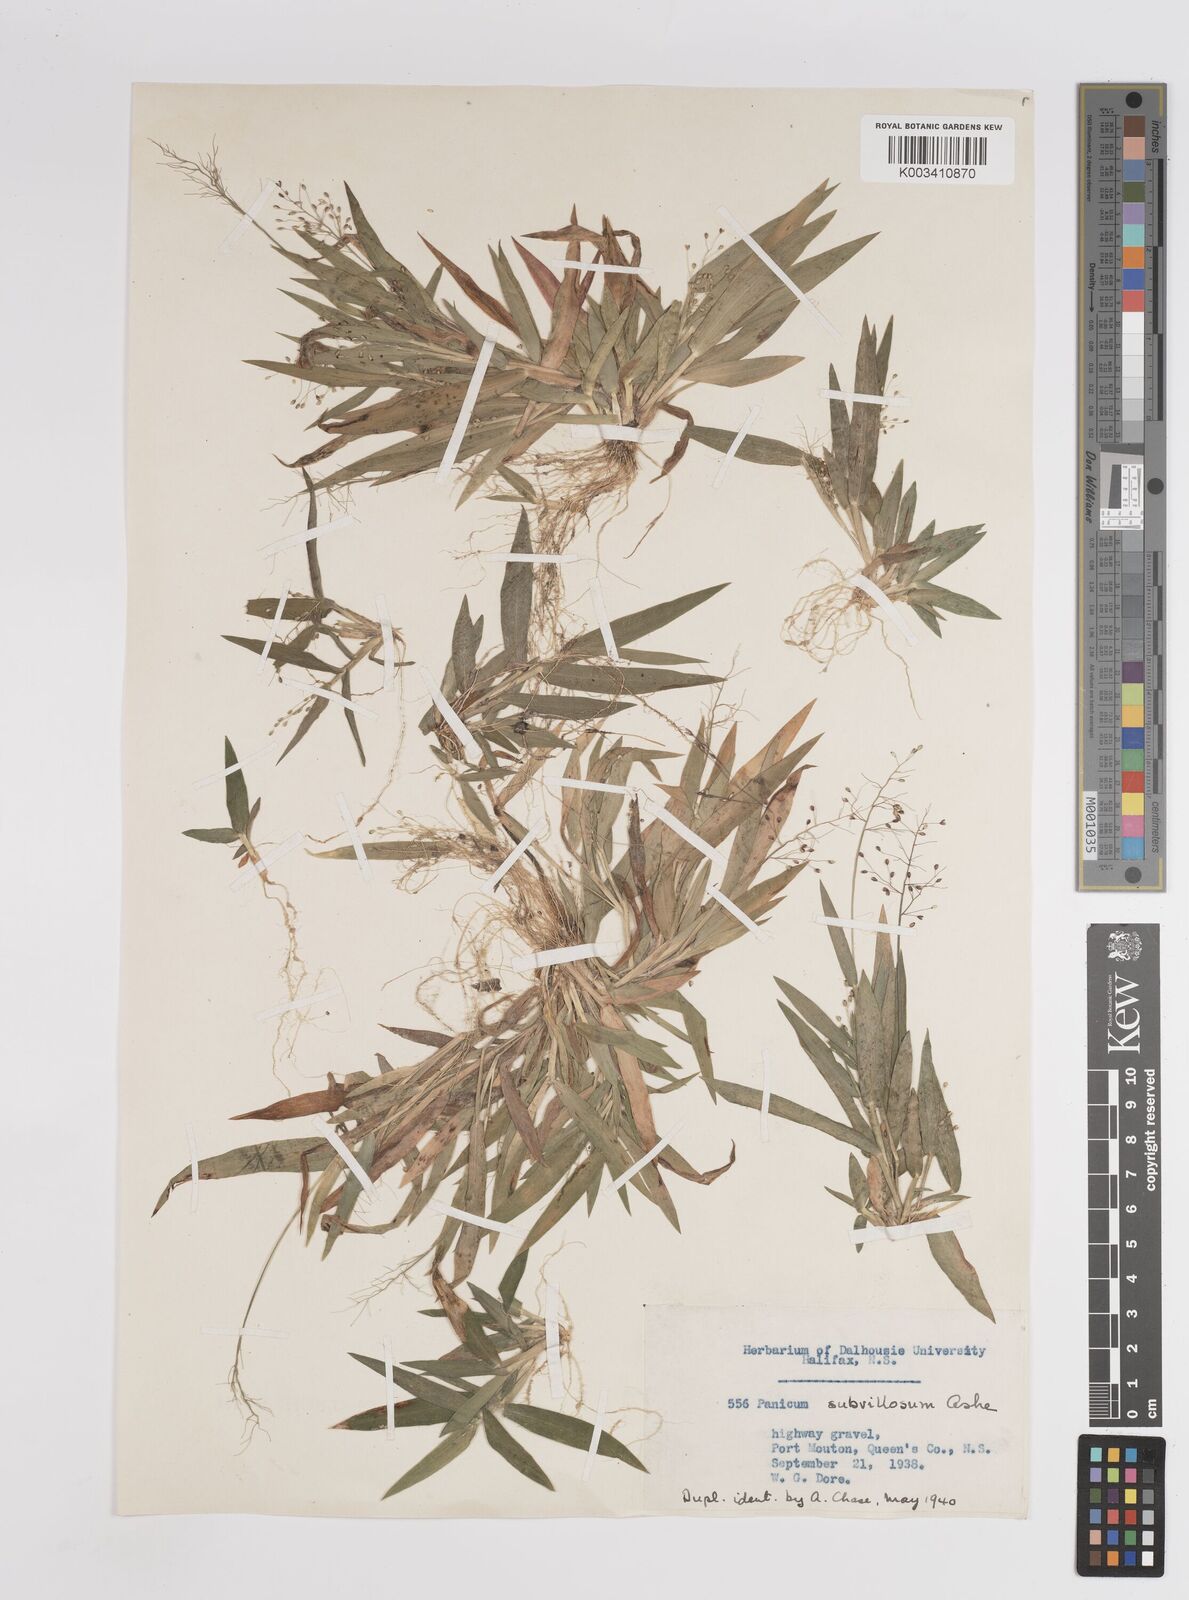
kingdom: Plantae
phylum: Tracheophyta
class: Liliopsida
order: Poales
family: Poaceae
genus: Dichanthelium
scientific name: Dichanthelium subvillosum
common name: Soft-haired panicgrass
